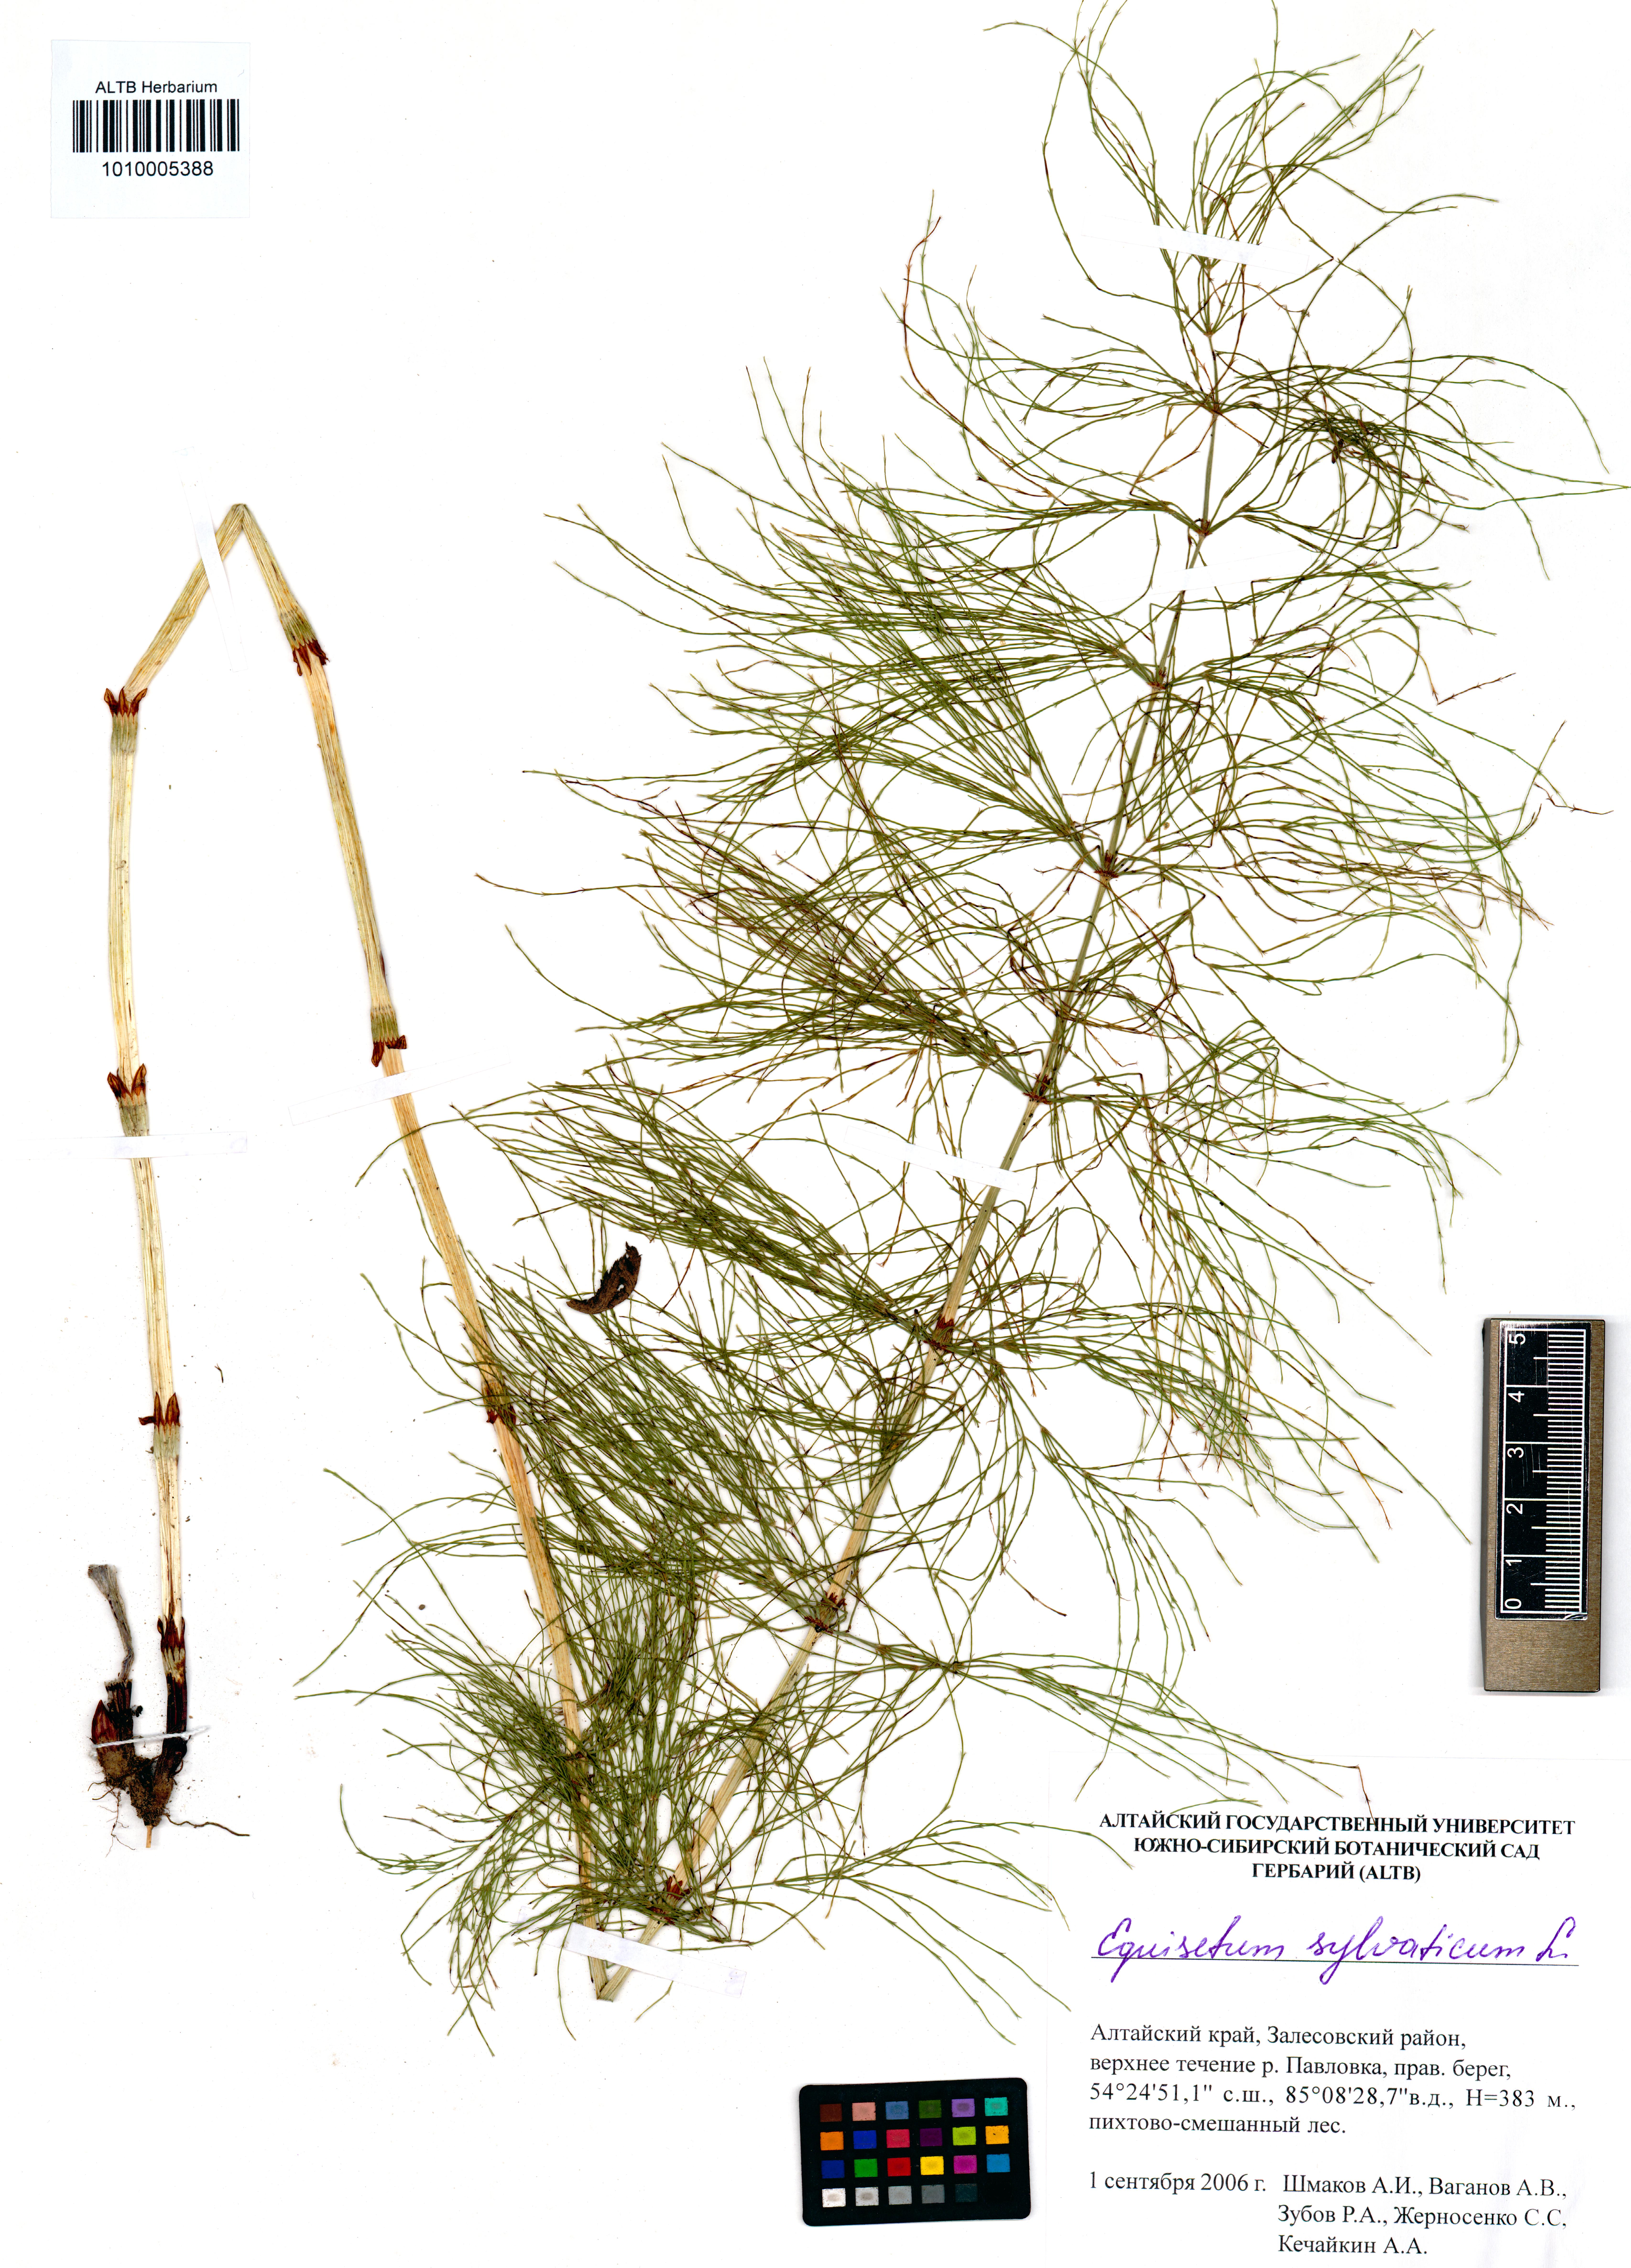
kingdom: Plantae
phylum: Tracheophyta
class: Polypodiopsida
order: Equisetales
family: Equisetaceae
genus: Equisetum
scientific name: Equisetum sylvaticum
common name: Wood horsetail
